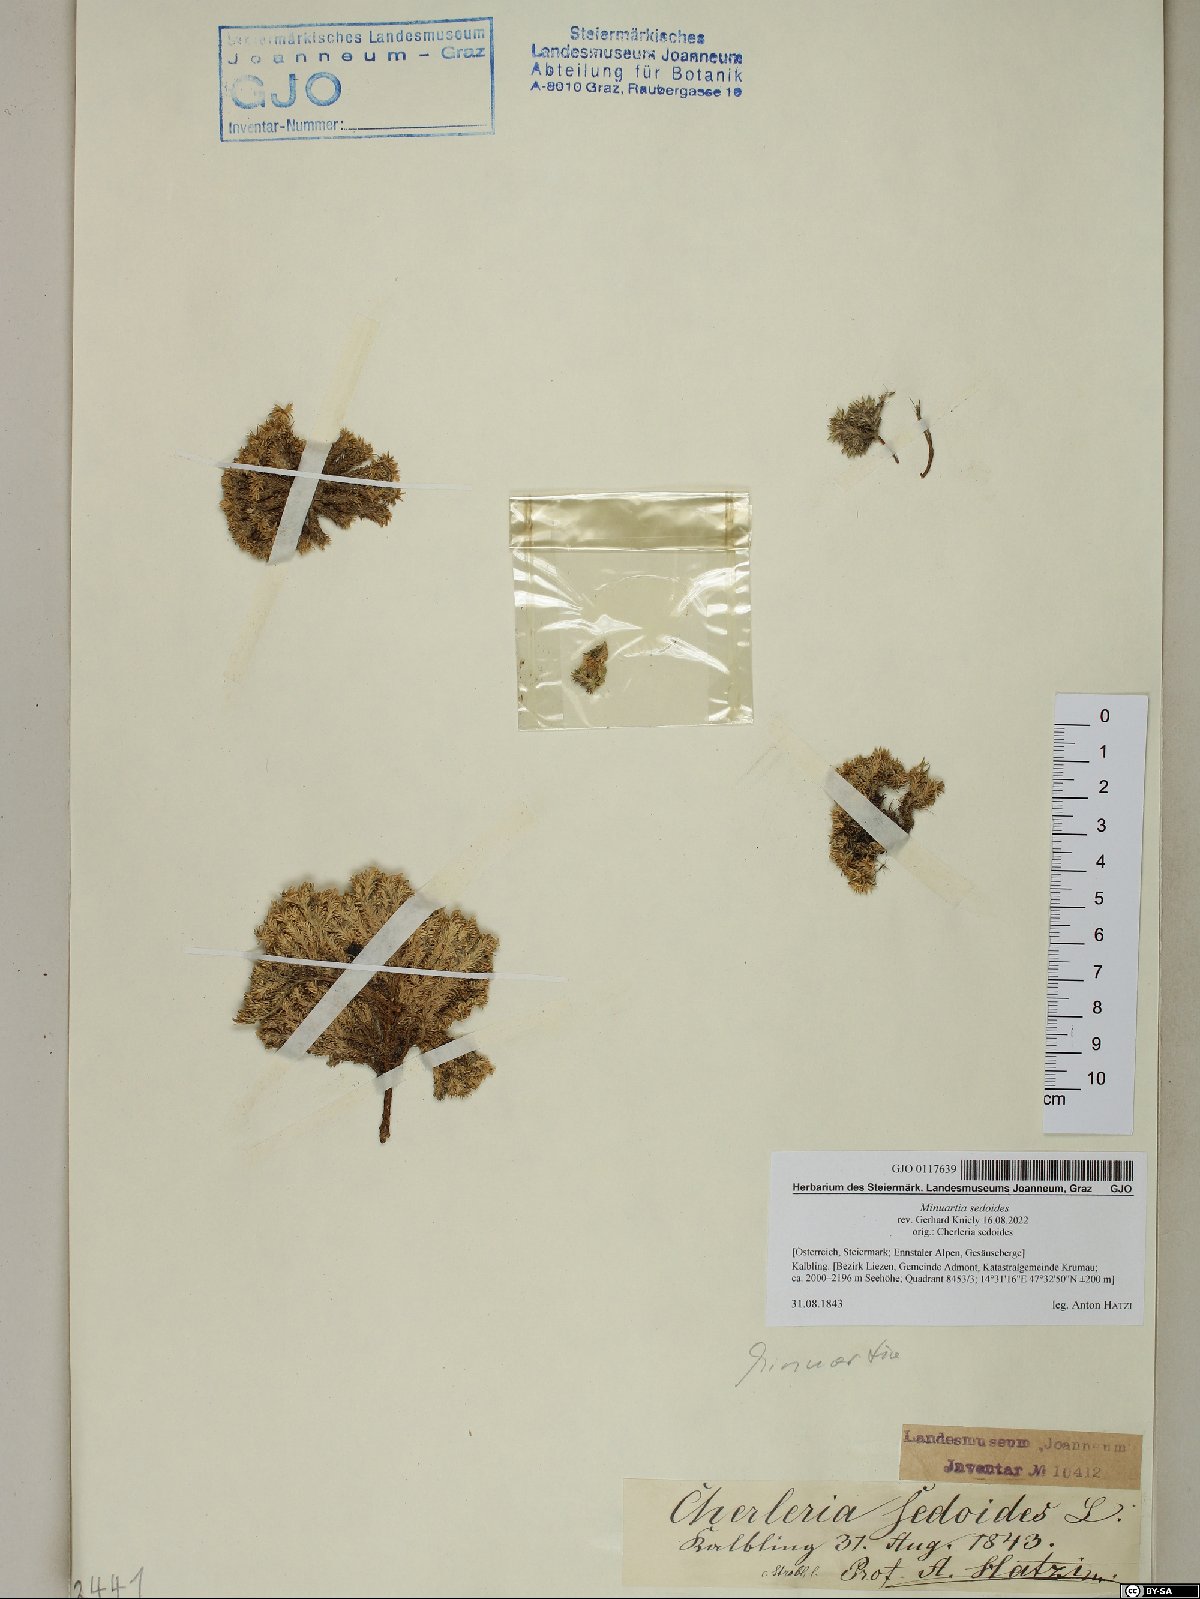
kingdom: Plantae
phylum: Tracheophyta
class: Magnoliopsida
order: Caryophyllales
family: Caryophyllaceae
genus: Cherleria
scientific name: Cherleria sedoides
